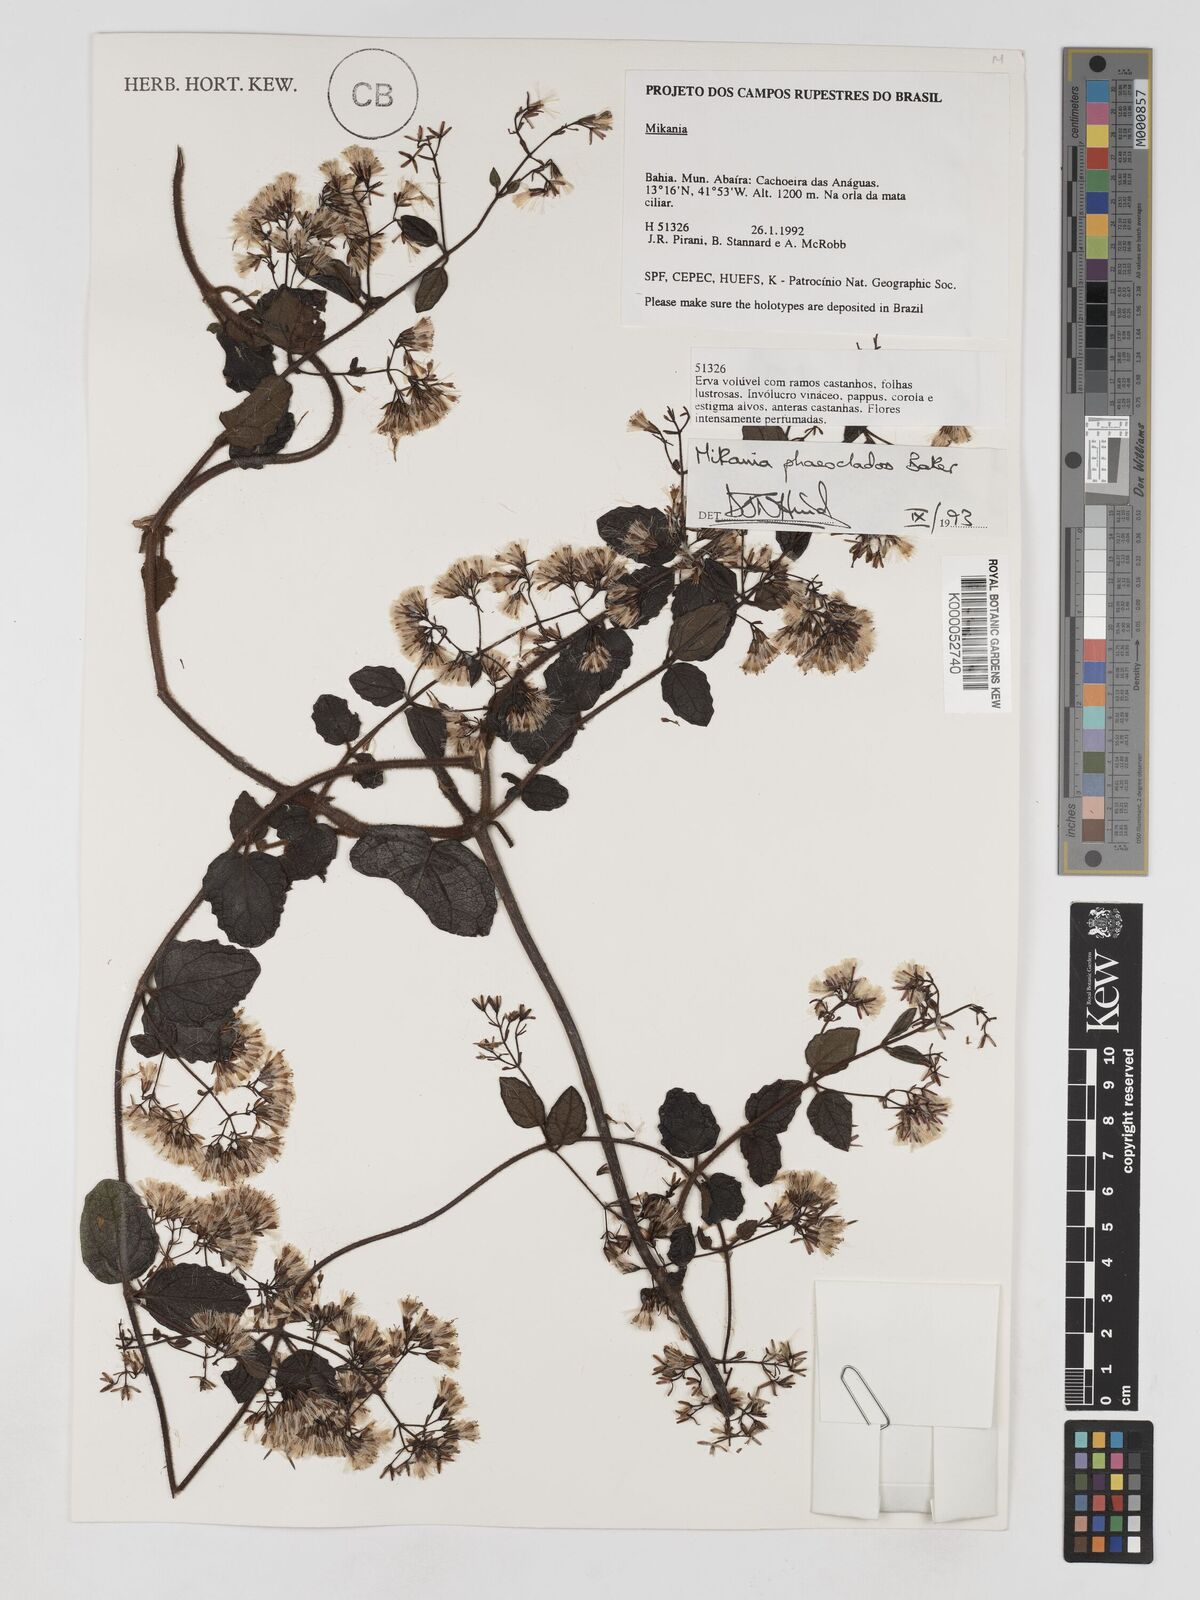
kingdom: Plantae
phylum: Tracheophyta
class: Magnoliopsida
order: Asterales
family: Asteraceae
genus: Mikania
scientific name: Mikania phaeoclados
